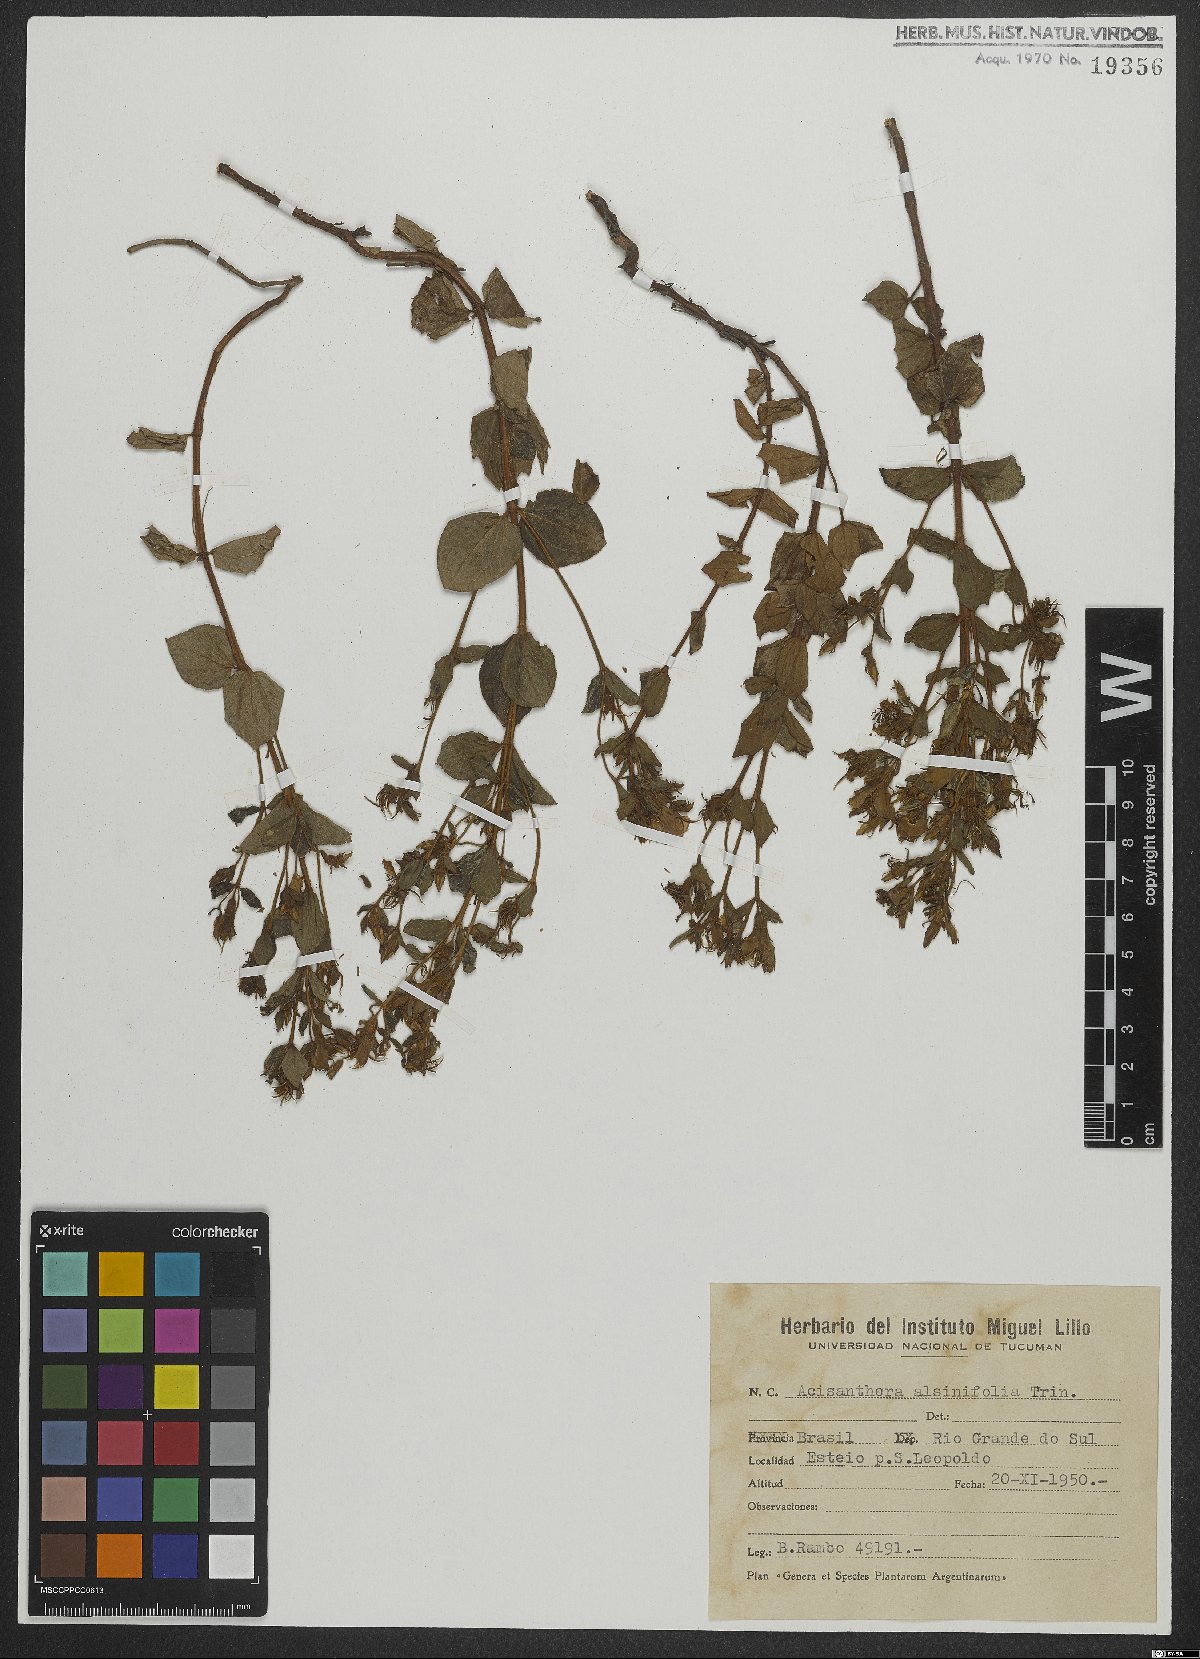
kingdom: Plantae
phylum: Tracheophyta
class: Magnoliopsida
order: Myrtales
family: Melastomataceae
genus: Acisanthera
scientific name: Acisanthera alsinefolia
